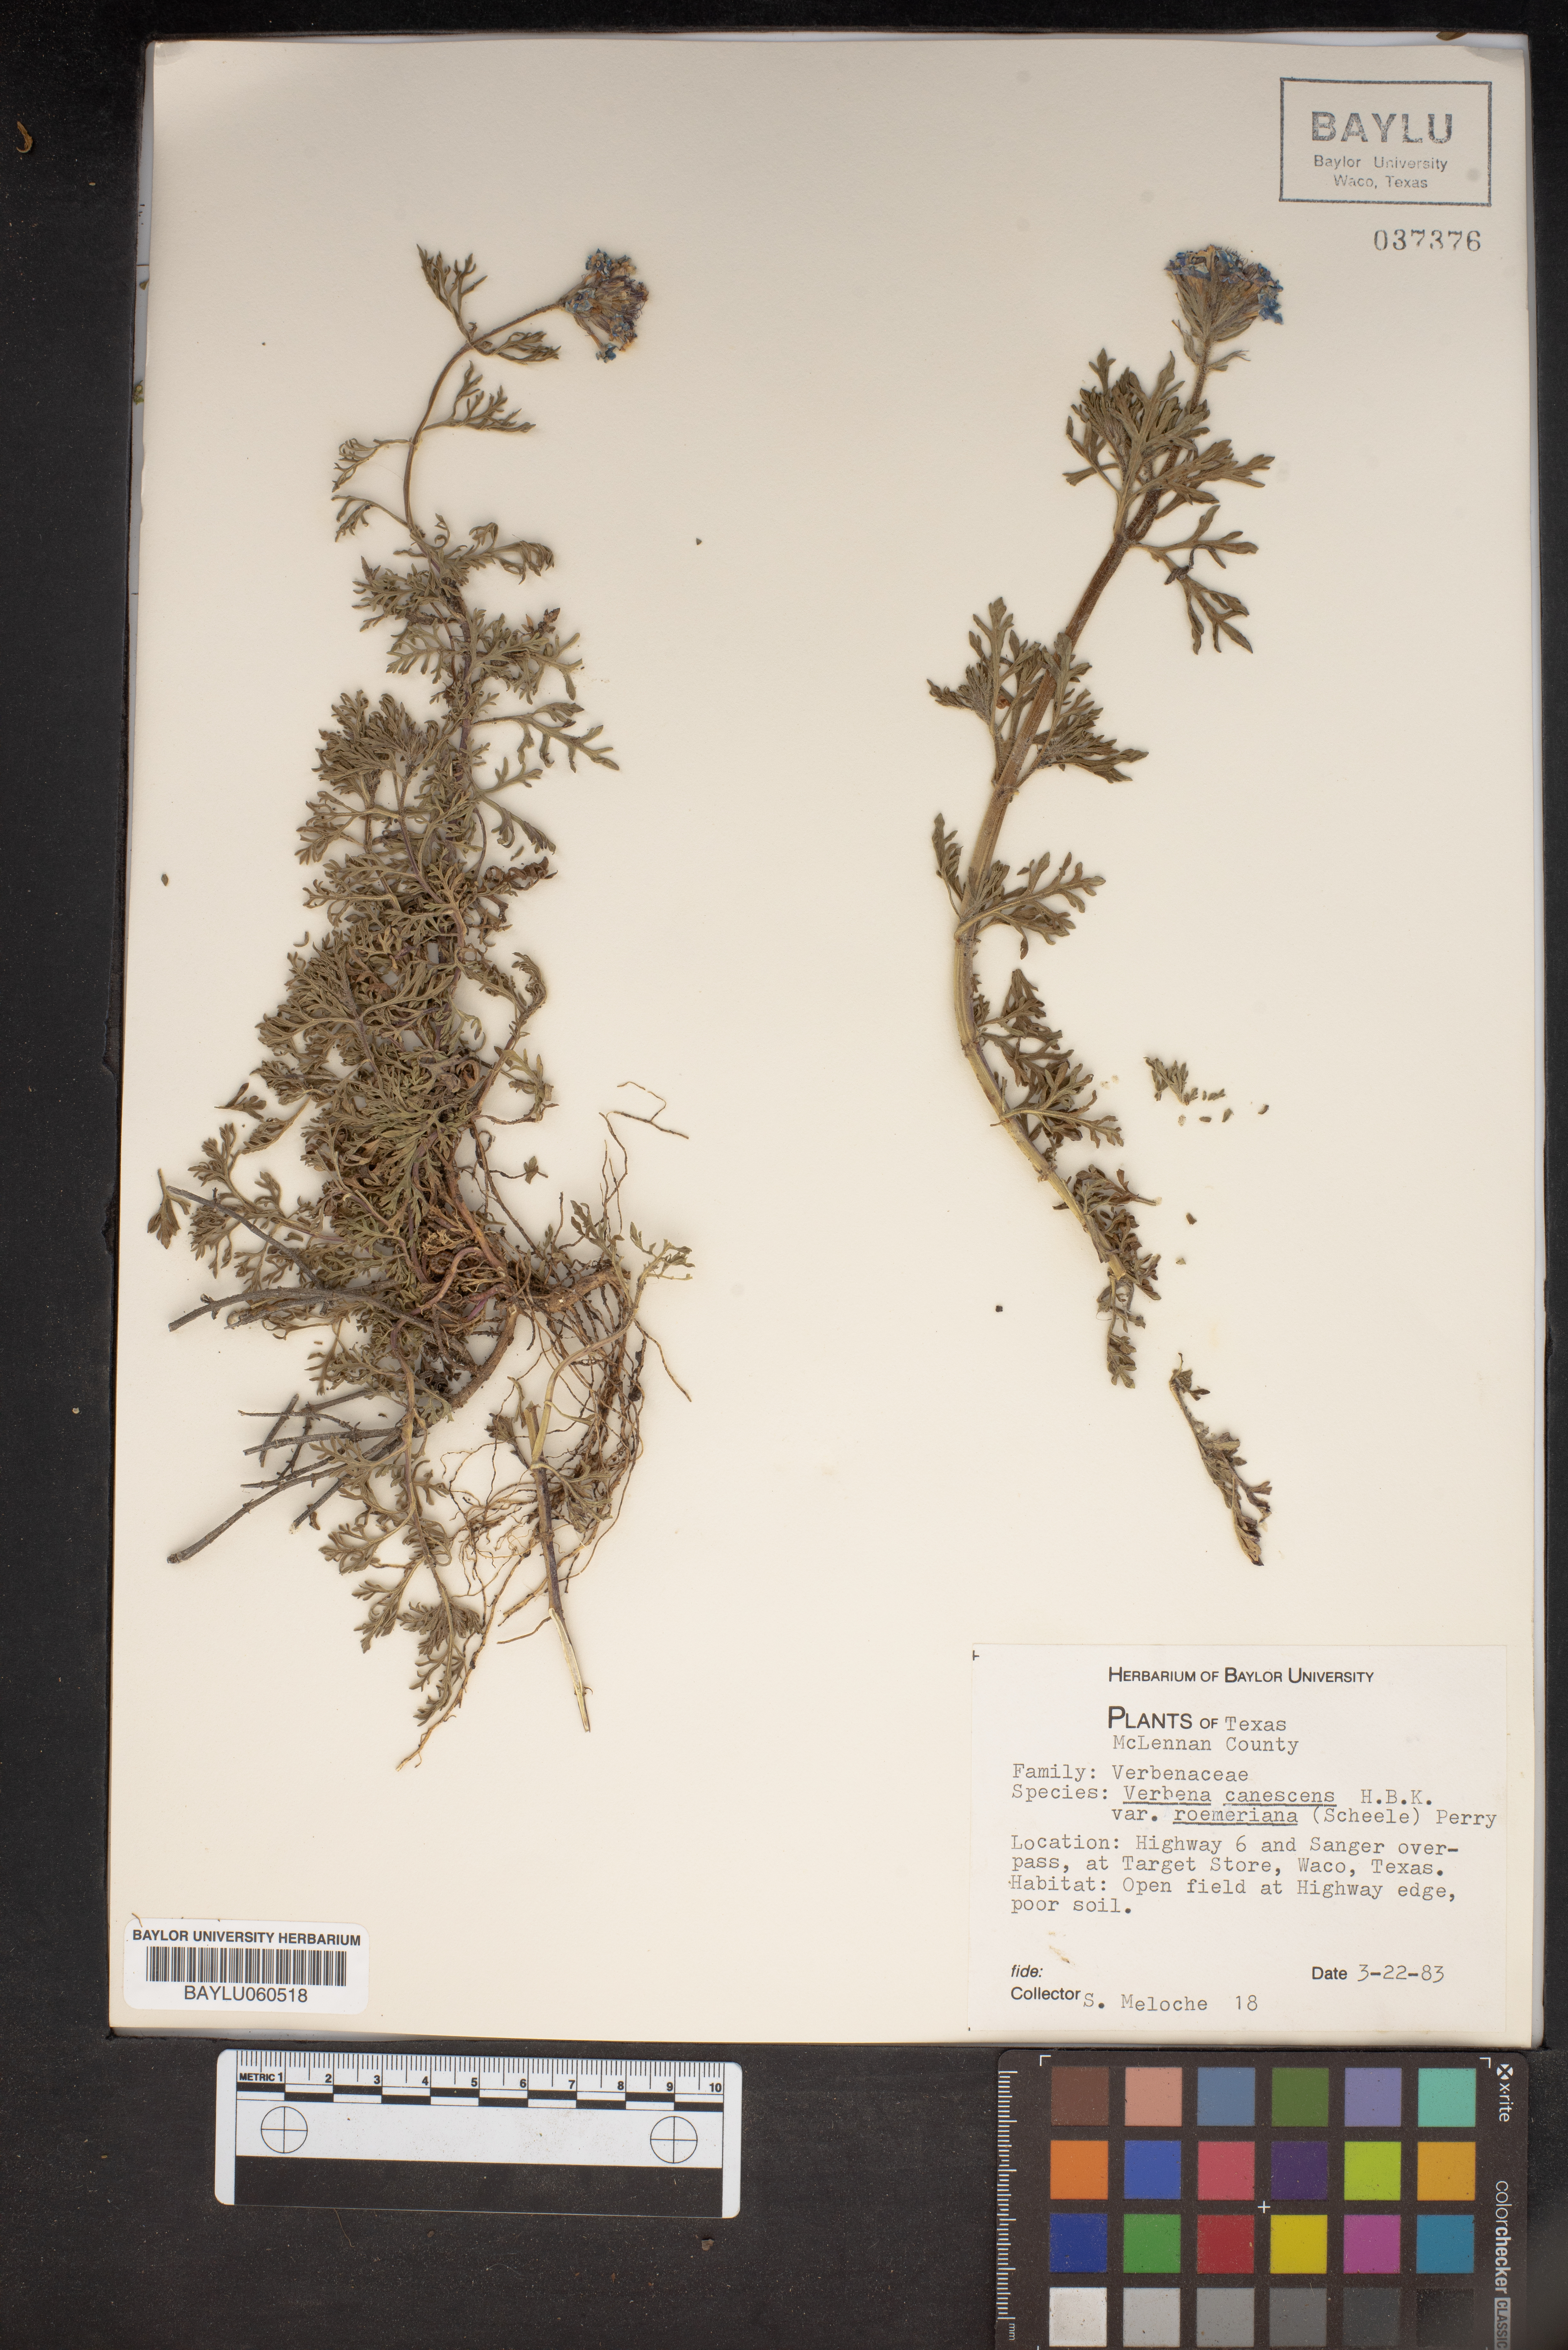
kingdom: Plantae
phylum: Tracheophyta
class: Magnoliopsida
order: Lamiales
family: Verbenaceae
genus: Verbena
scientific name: Verbena canescens
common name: Gray vervain
